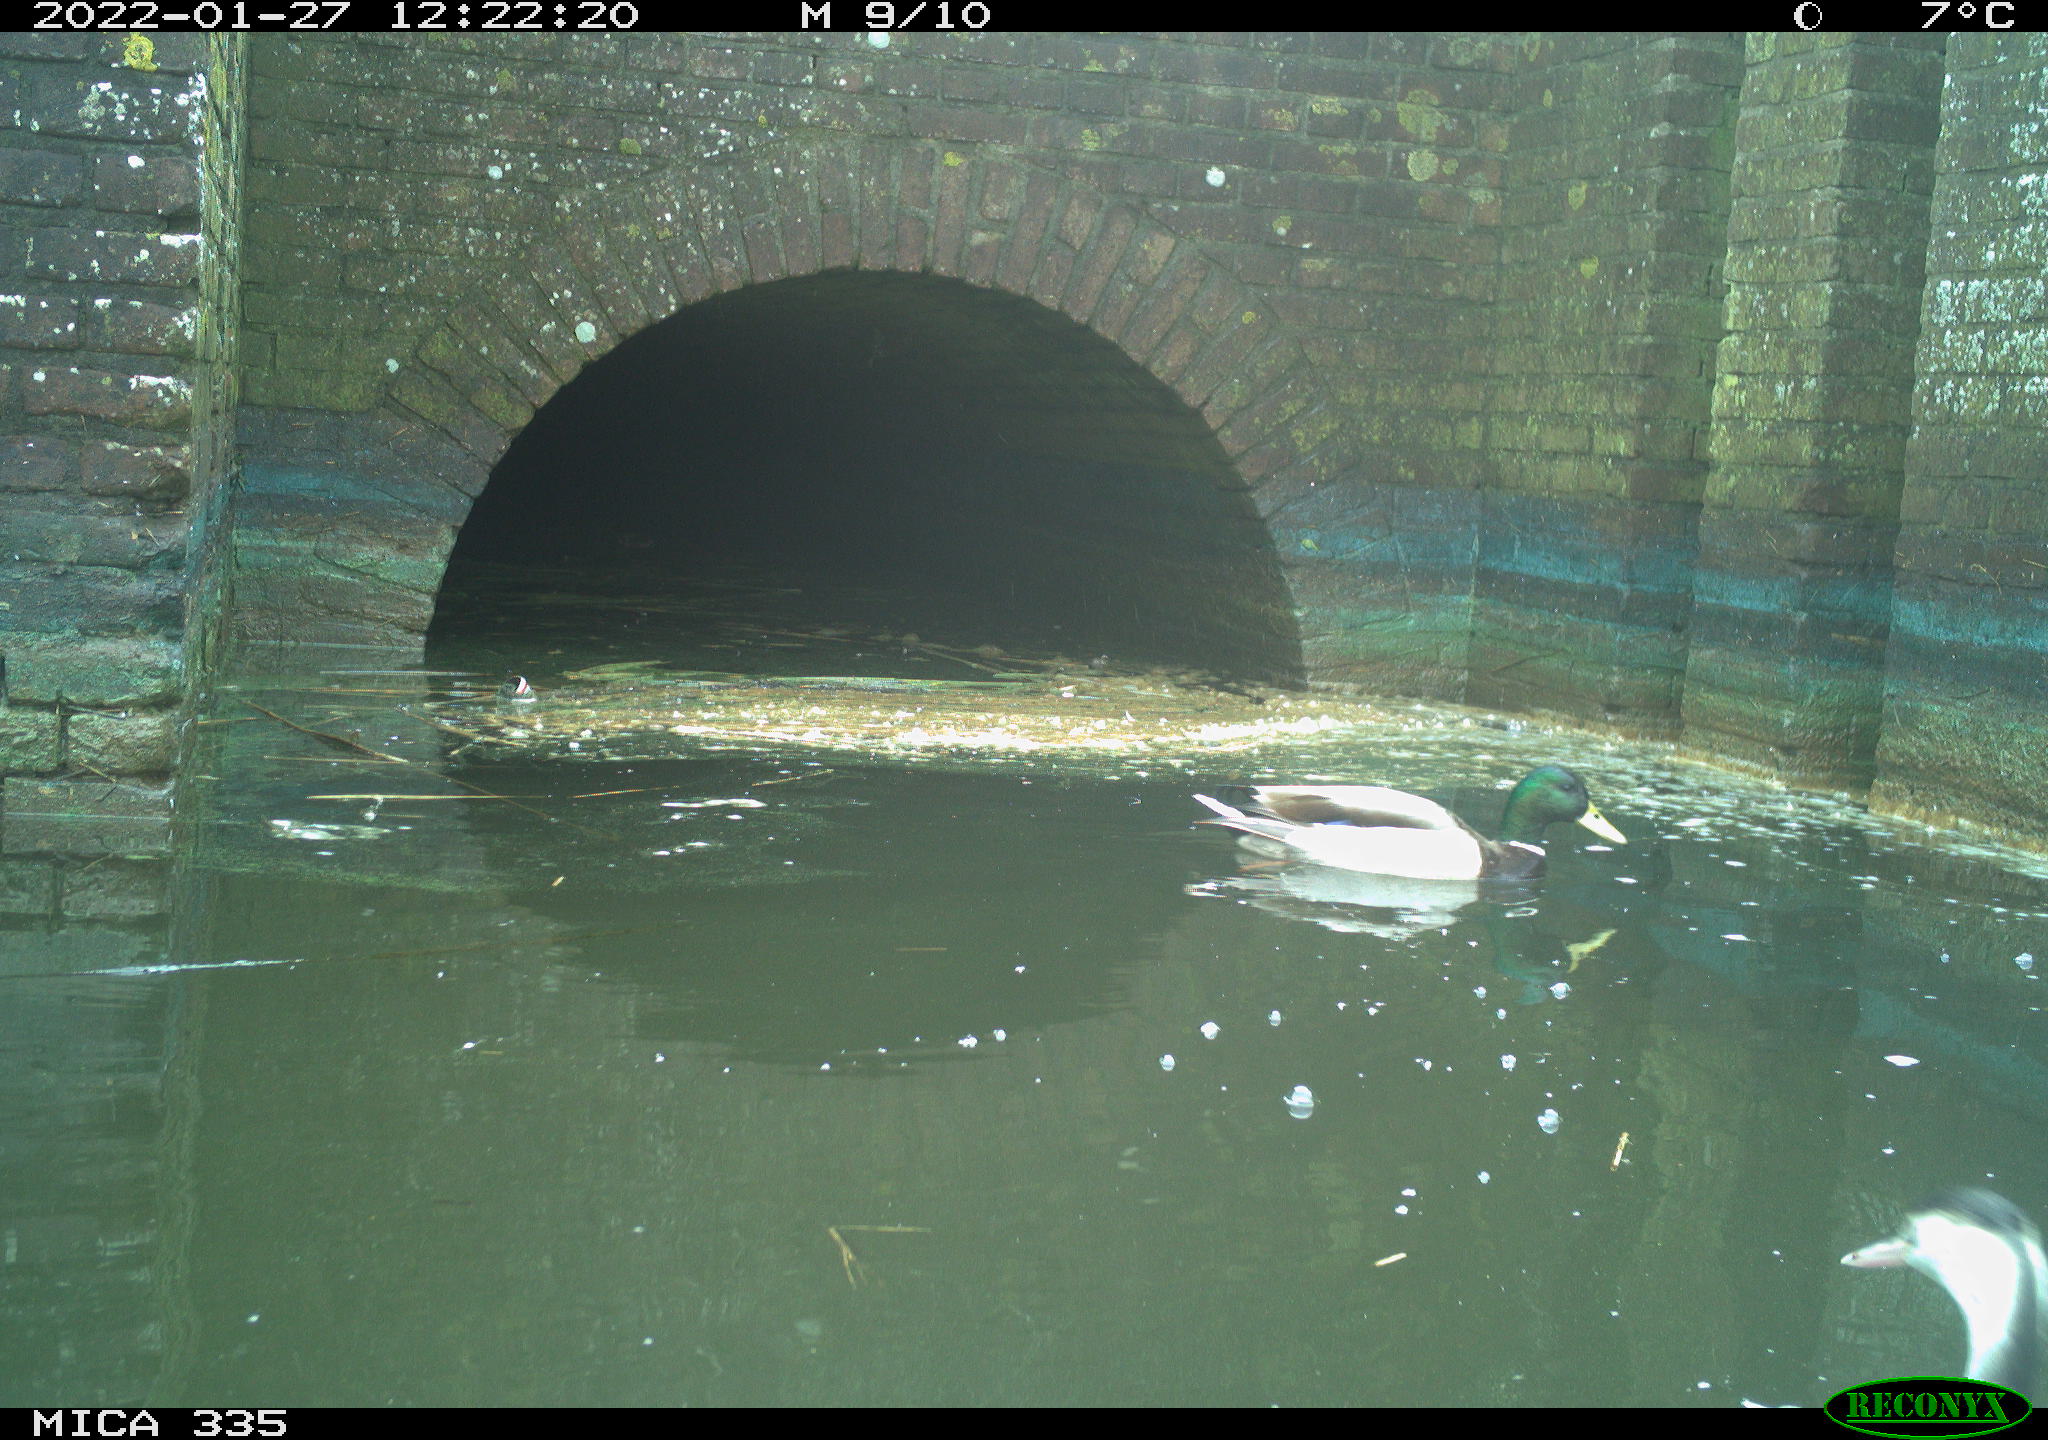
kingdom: Animalia
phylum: Chordata
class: Aves
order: Anseriformes
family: Anatidae
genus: Anas
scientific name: Anas platyrhynchos
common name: Mallard
